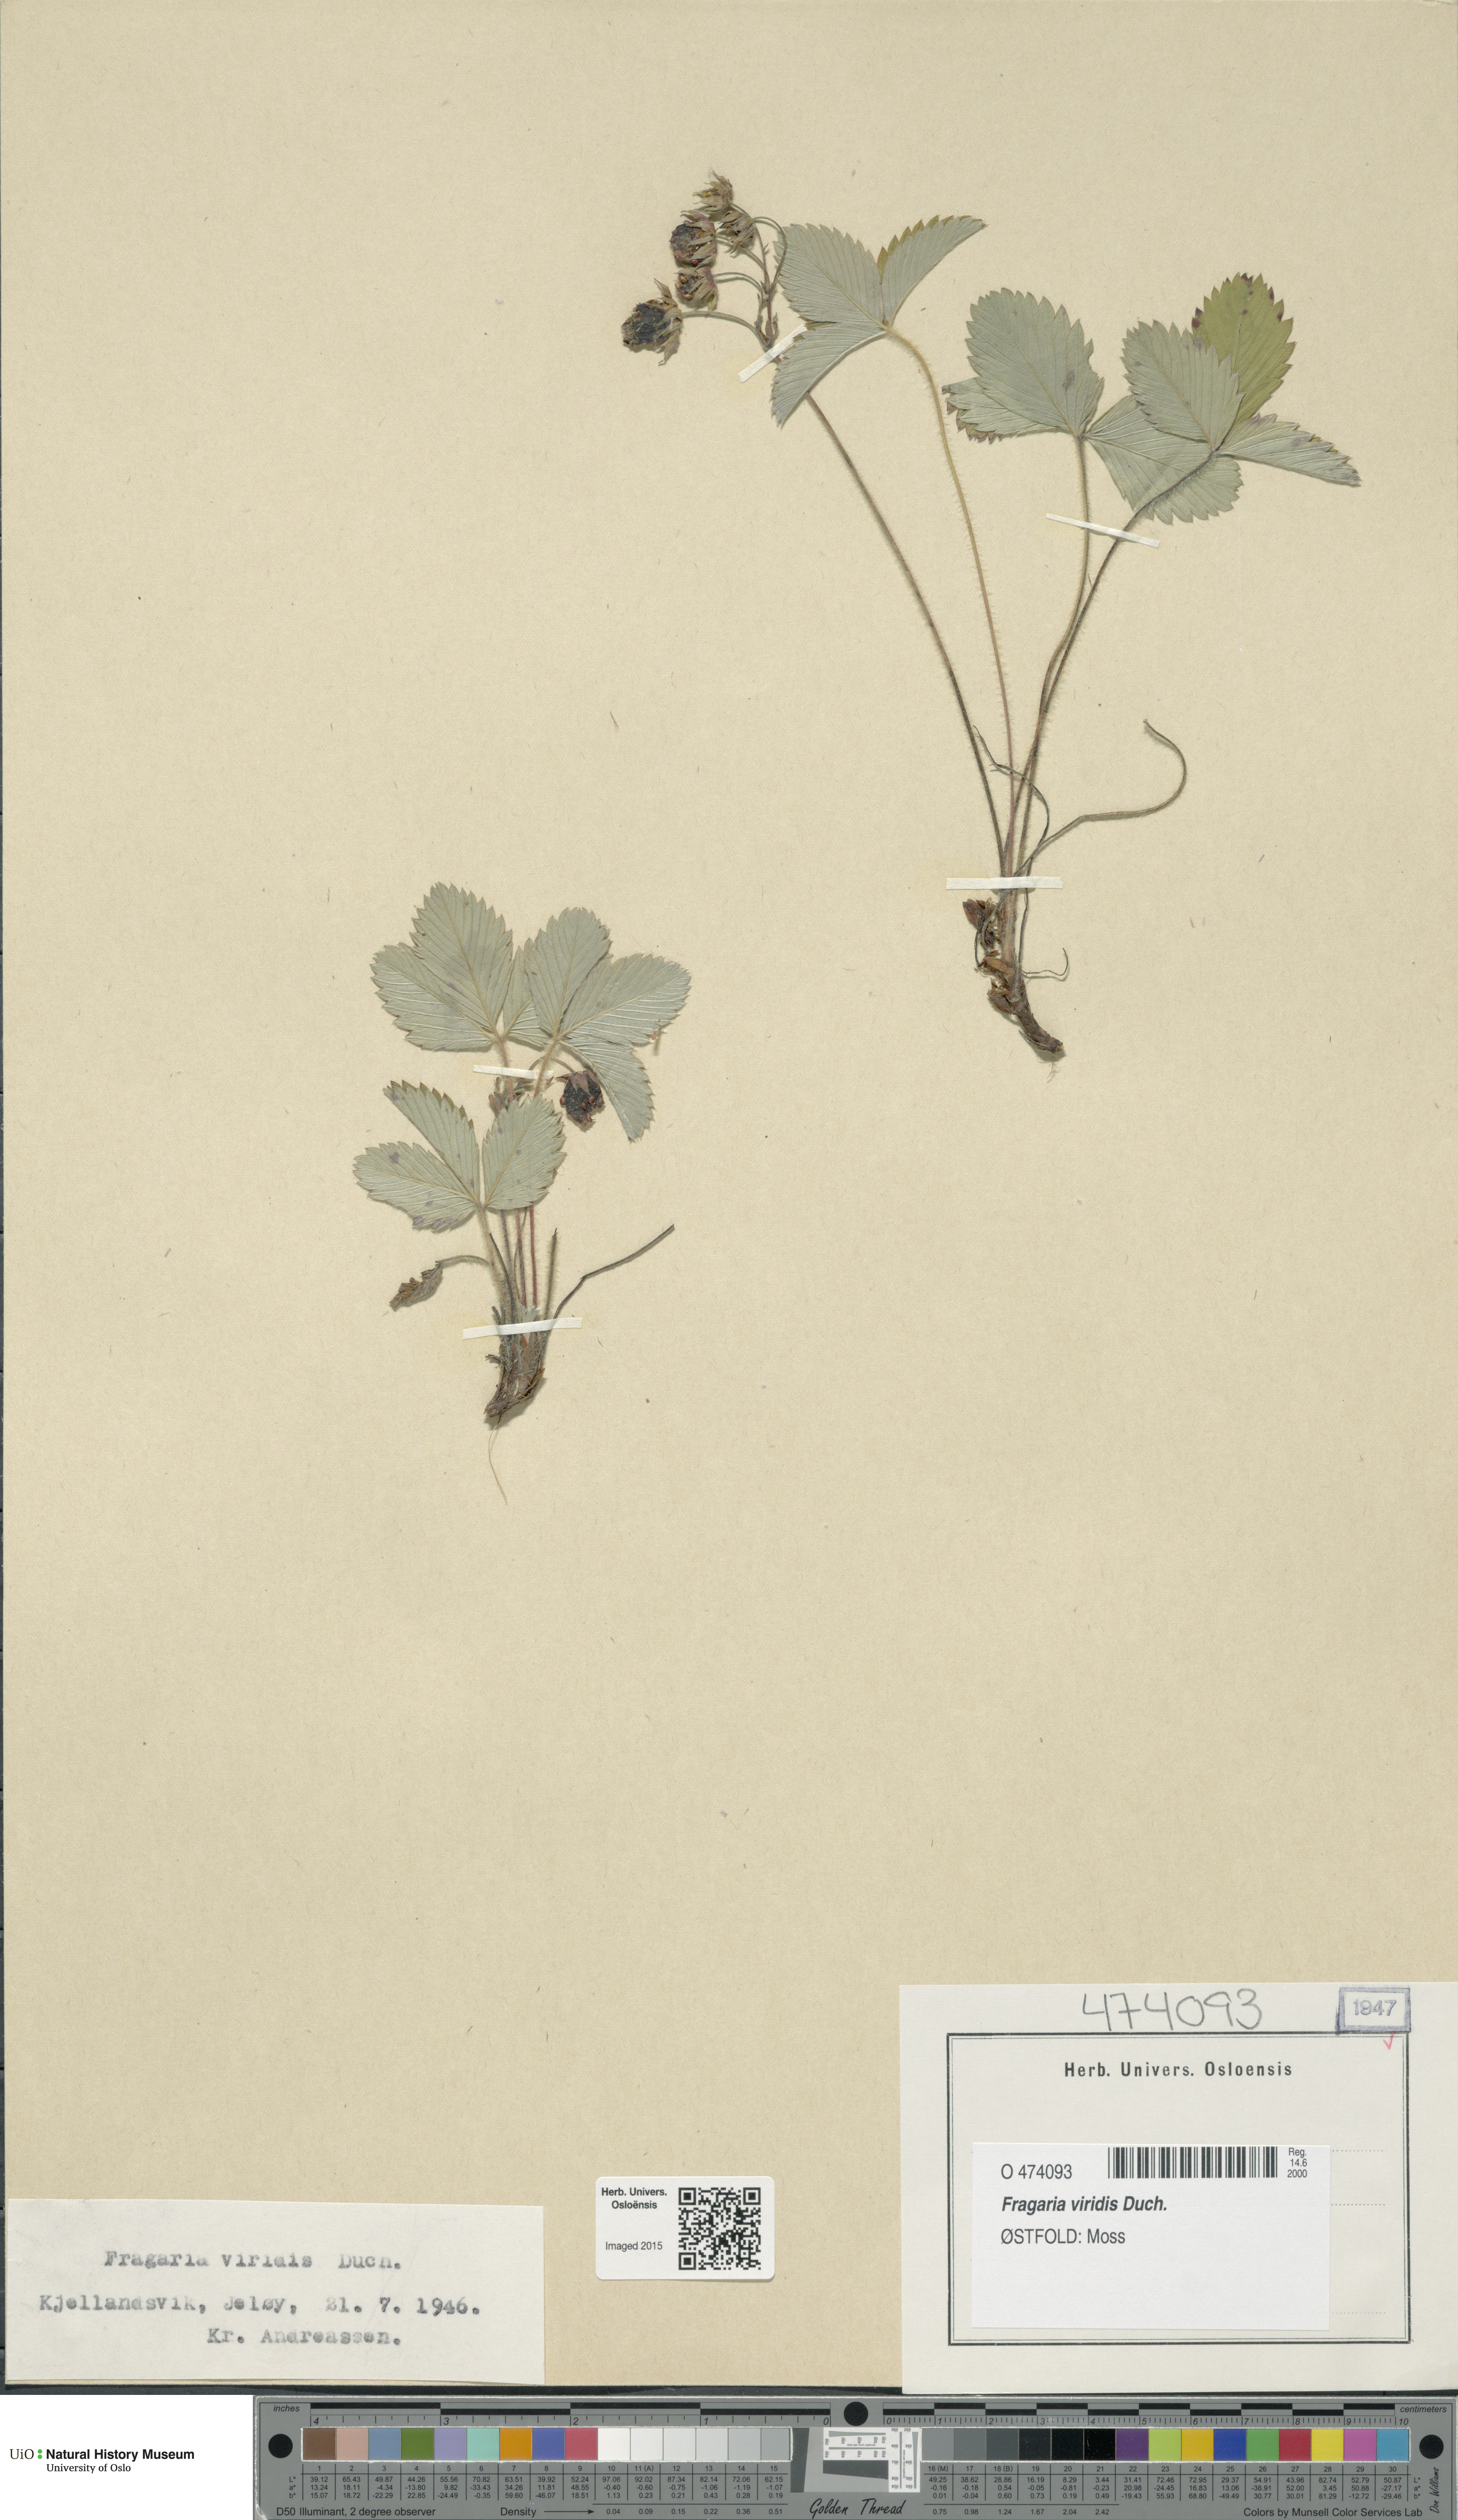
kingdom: Plantae
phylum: Tracheophyta
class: Magnoliopsida
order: Rosales
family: Rosaceae
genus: Fragaria
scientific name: Fragaria viridis
